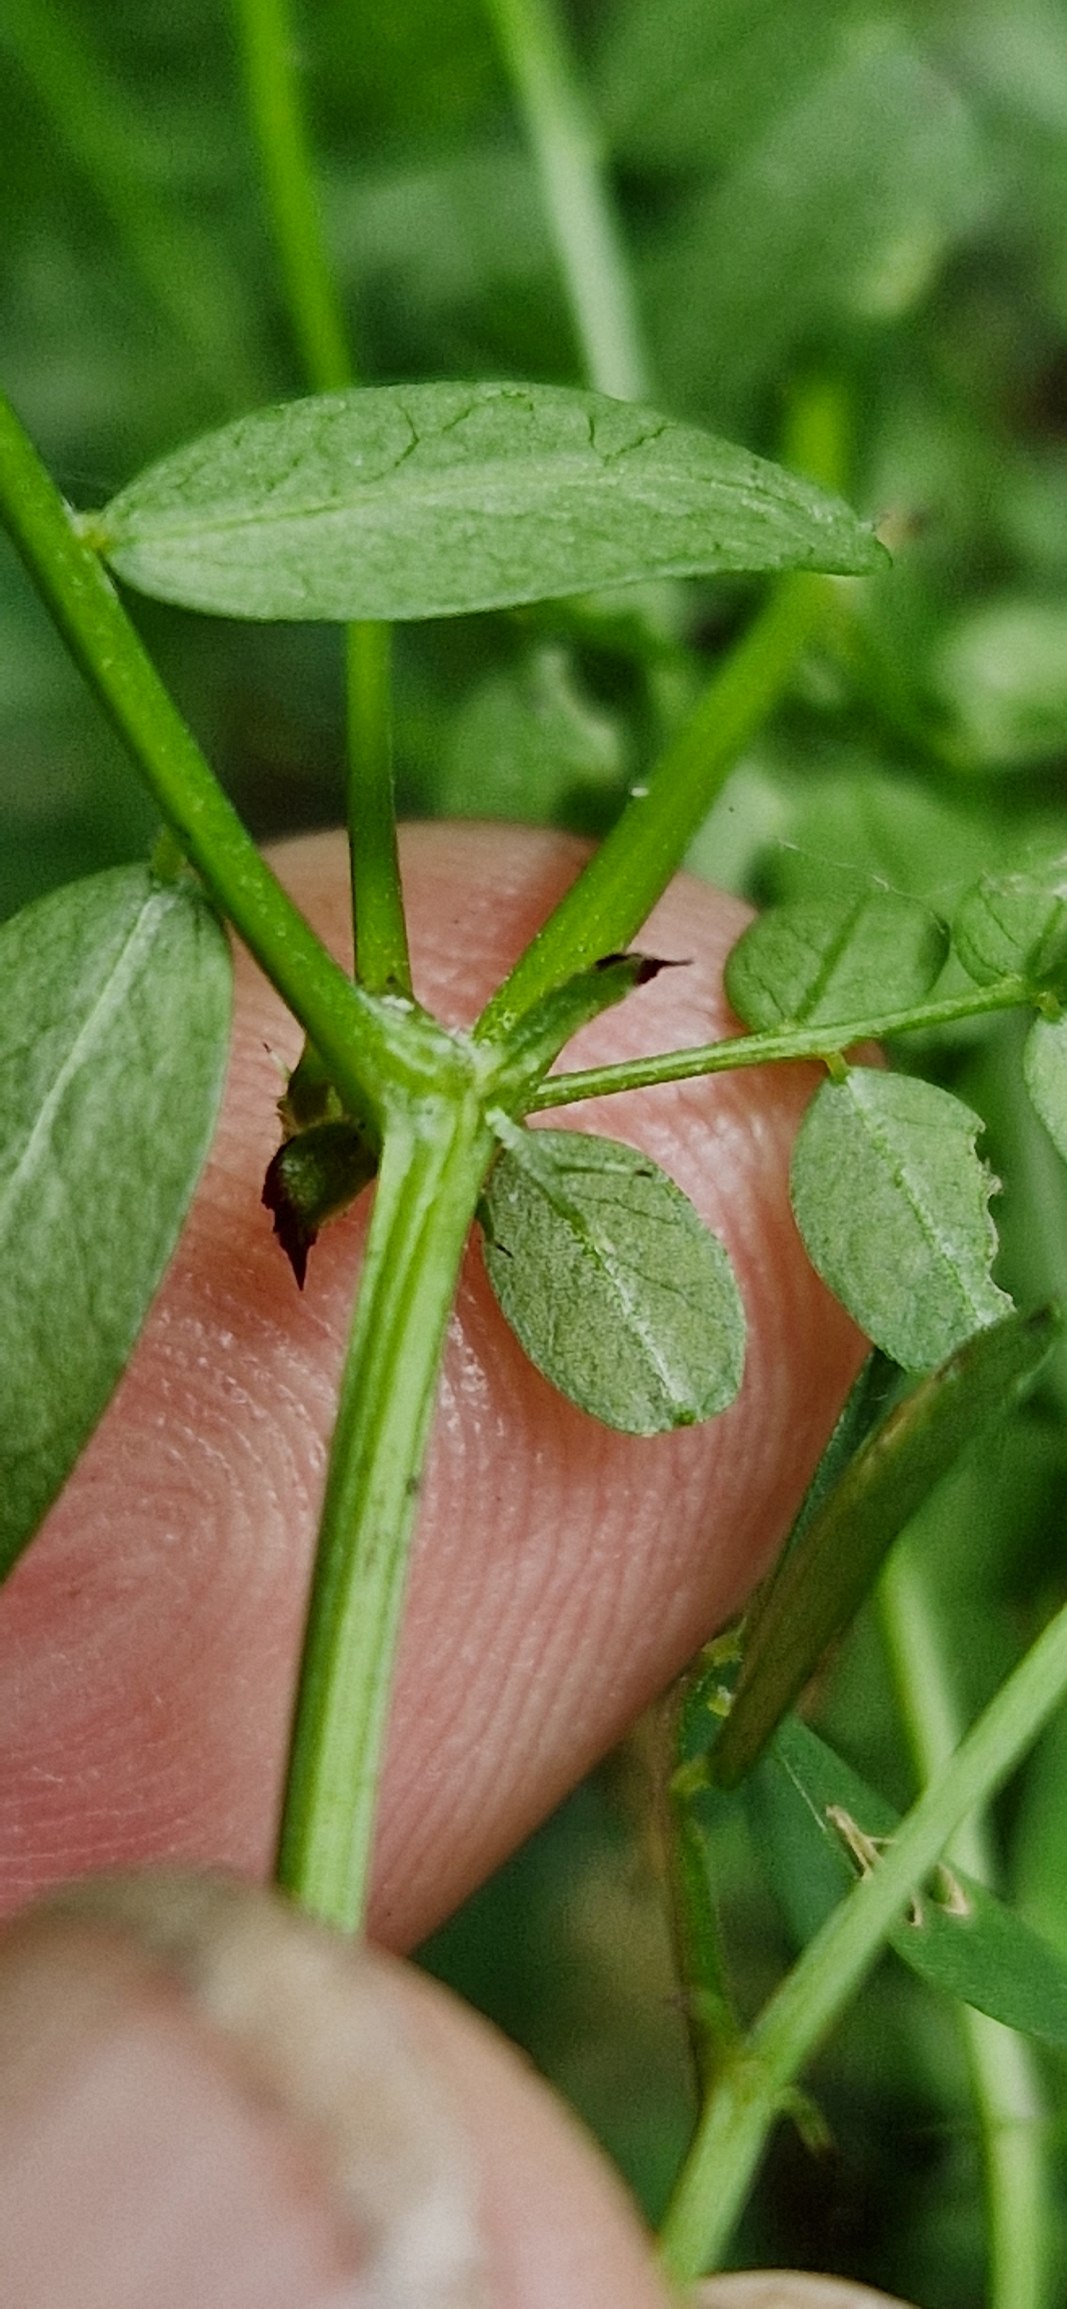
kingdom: Plantae
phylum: Tracheophyta
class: Magnoliopsida
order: Fabales
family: Fabaceae
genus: Vicia
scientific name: Vicia sylvatica
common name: Skov-vikke
